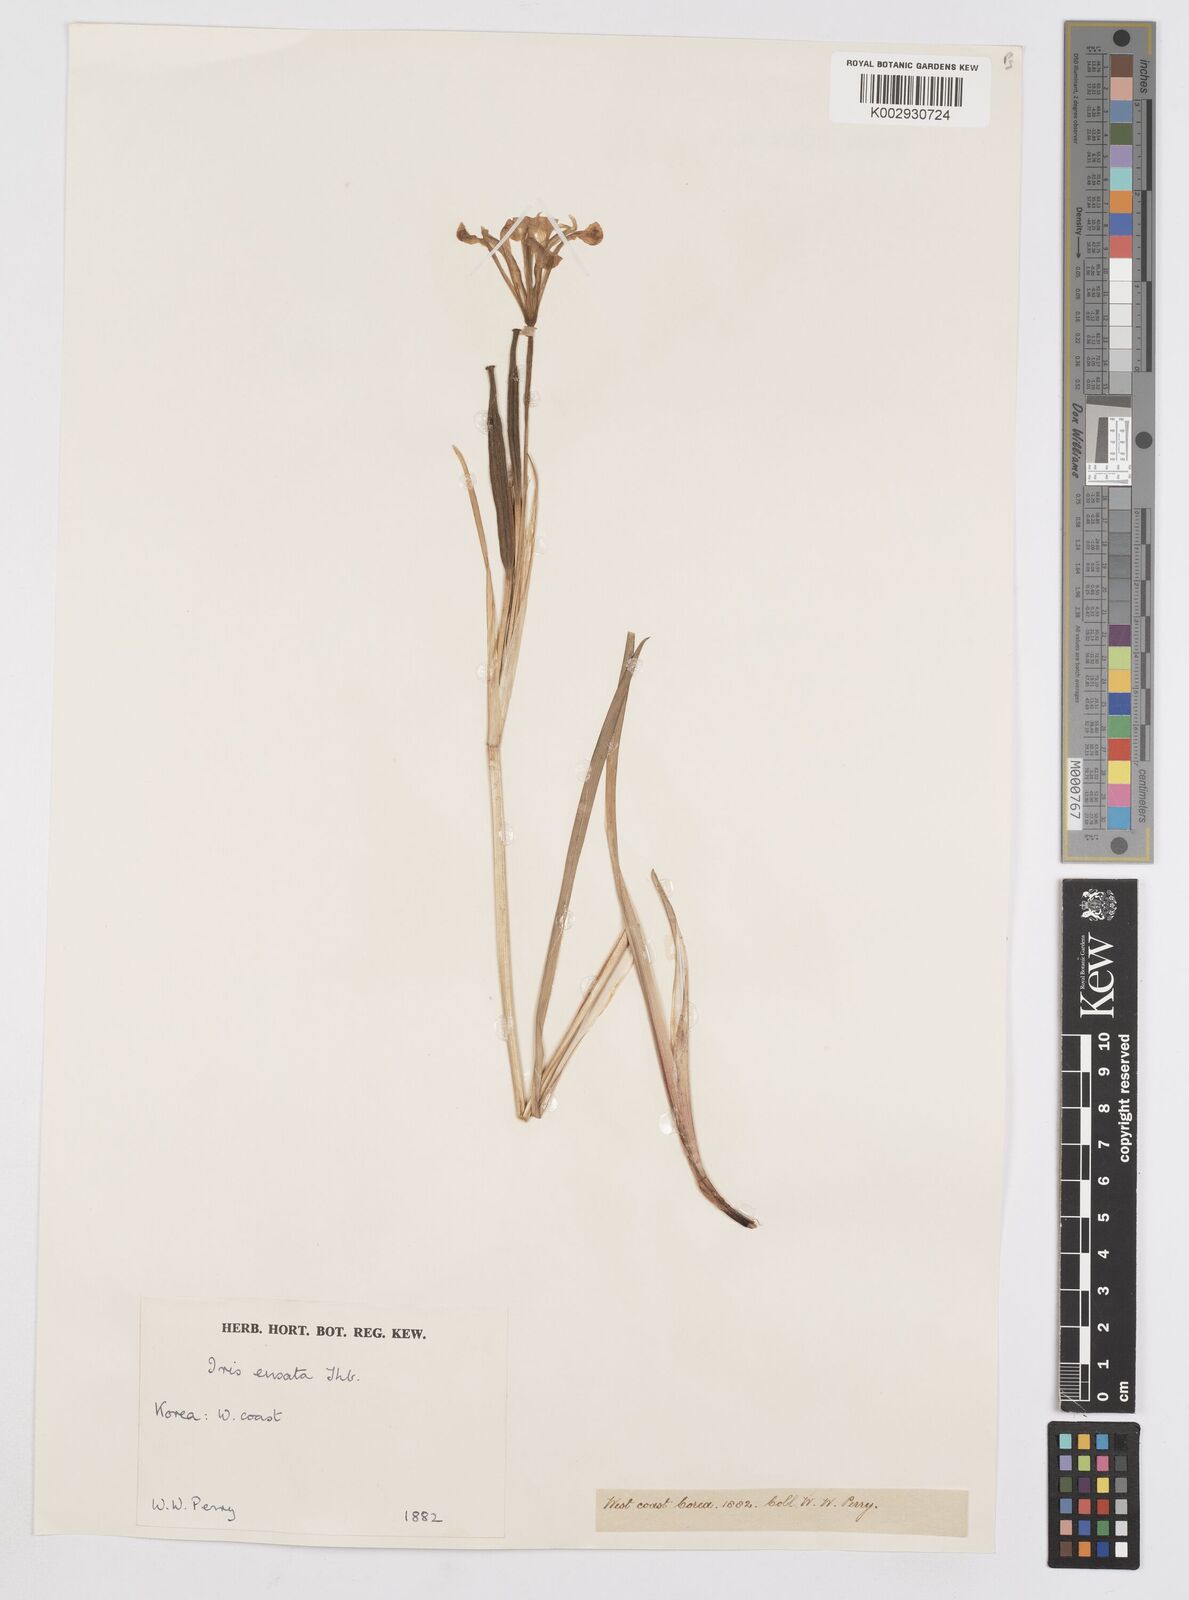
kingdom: Plantae
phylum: Tracheophyta
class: Liliopsida
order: Asparagales
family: Iridaceae
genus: Iris
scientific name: Iris ensata
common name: Beaked iris
